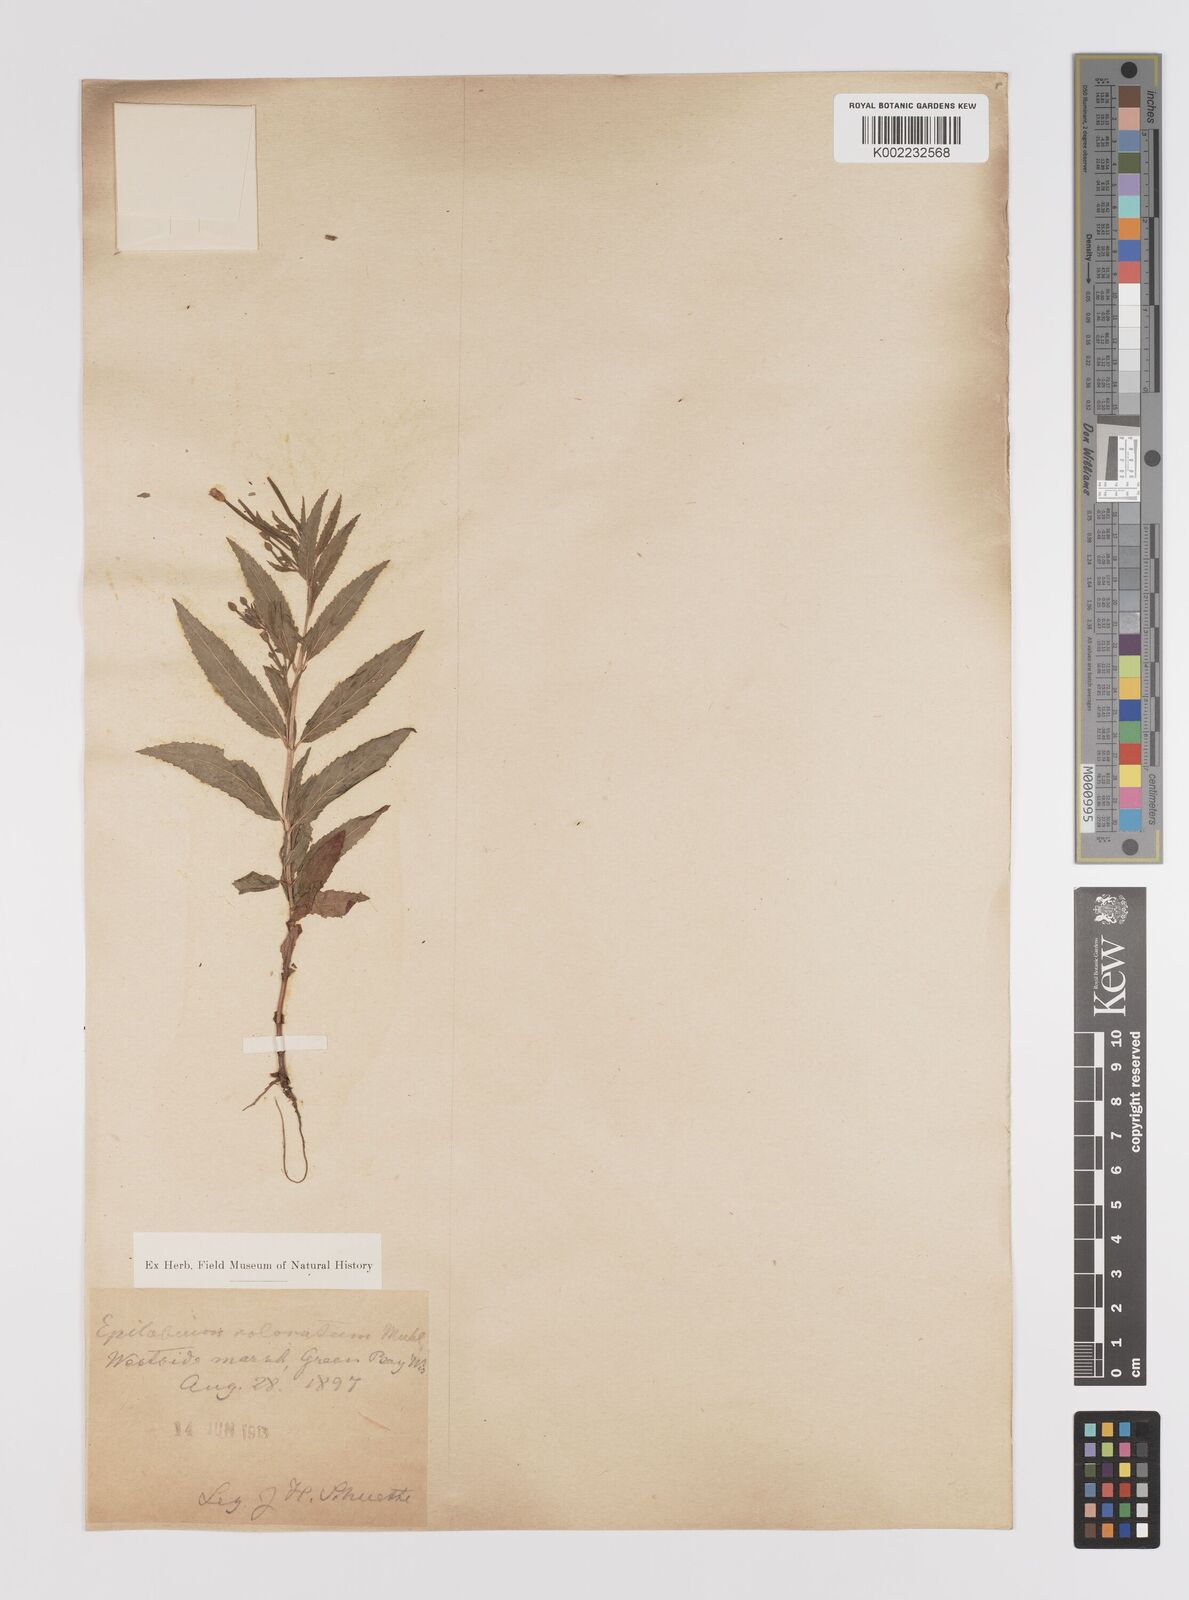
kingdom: Plantae
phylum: Tracheophyta
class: Magnoliopsida
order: Myrtales
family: Onagraceae
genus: Epilobium
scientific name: Epilobium coloratum
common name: Bronze willowherb
